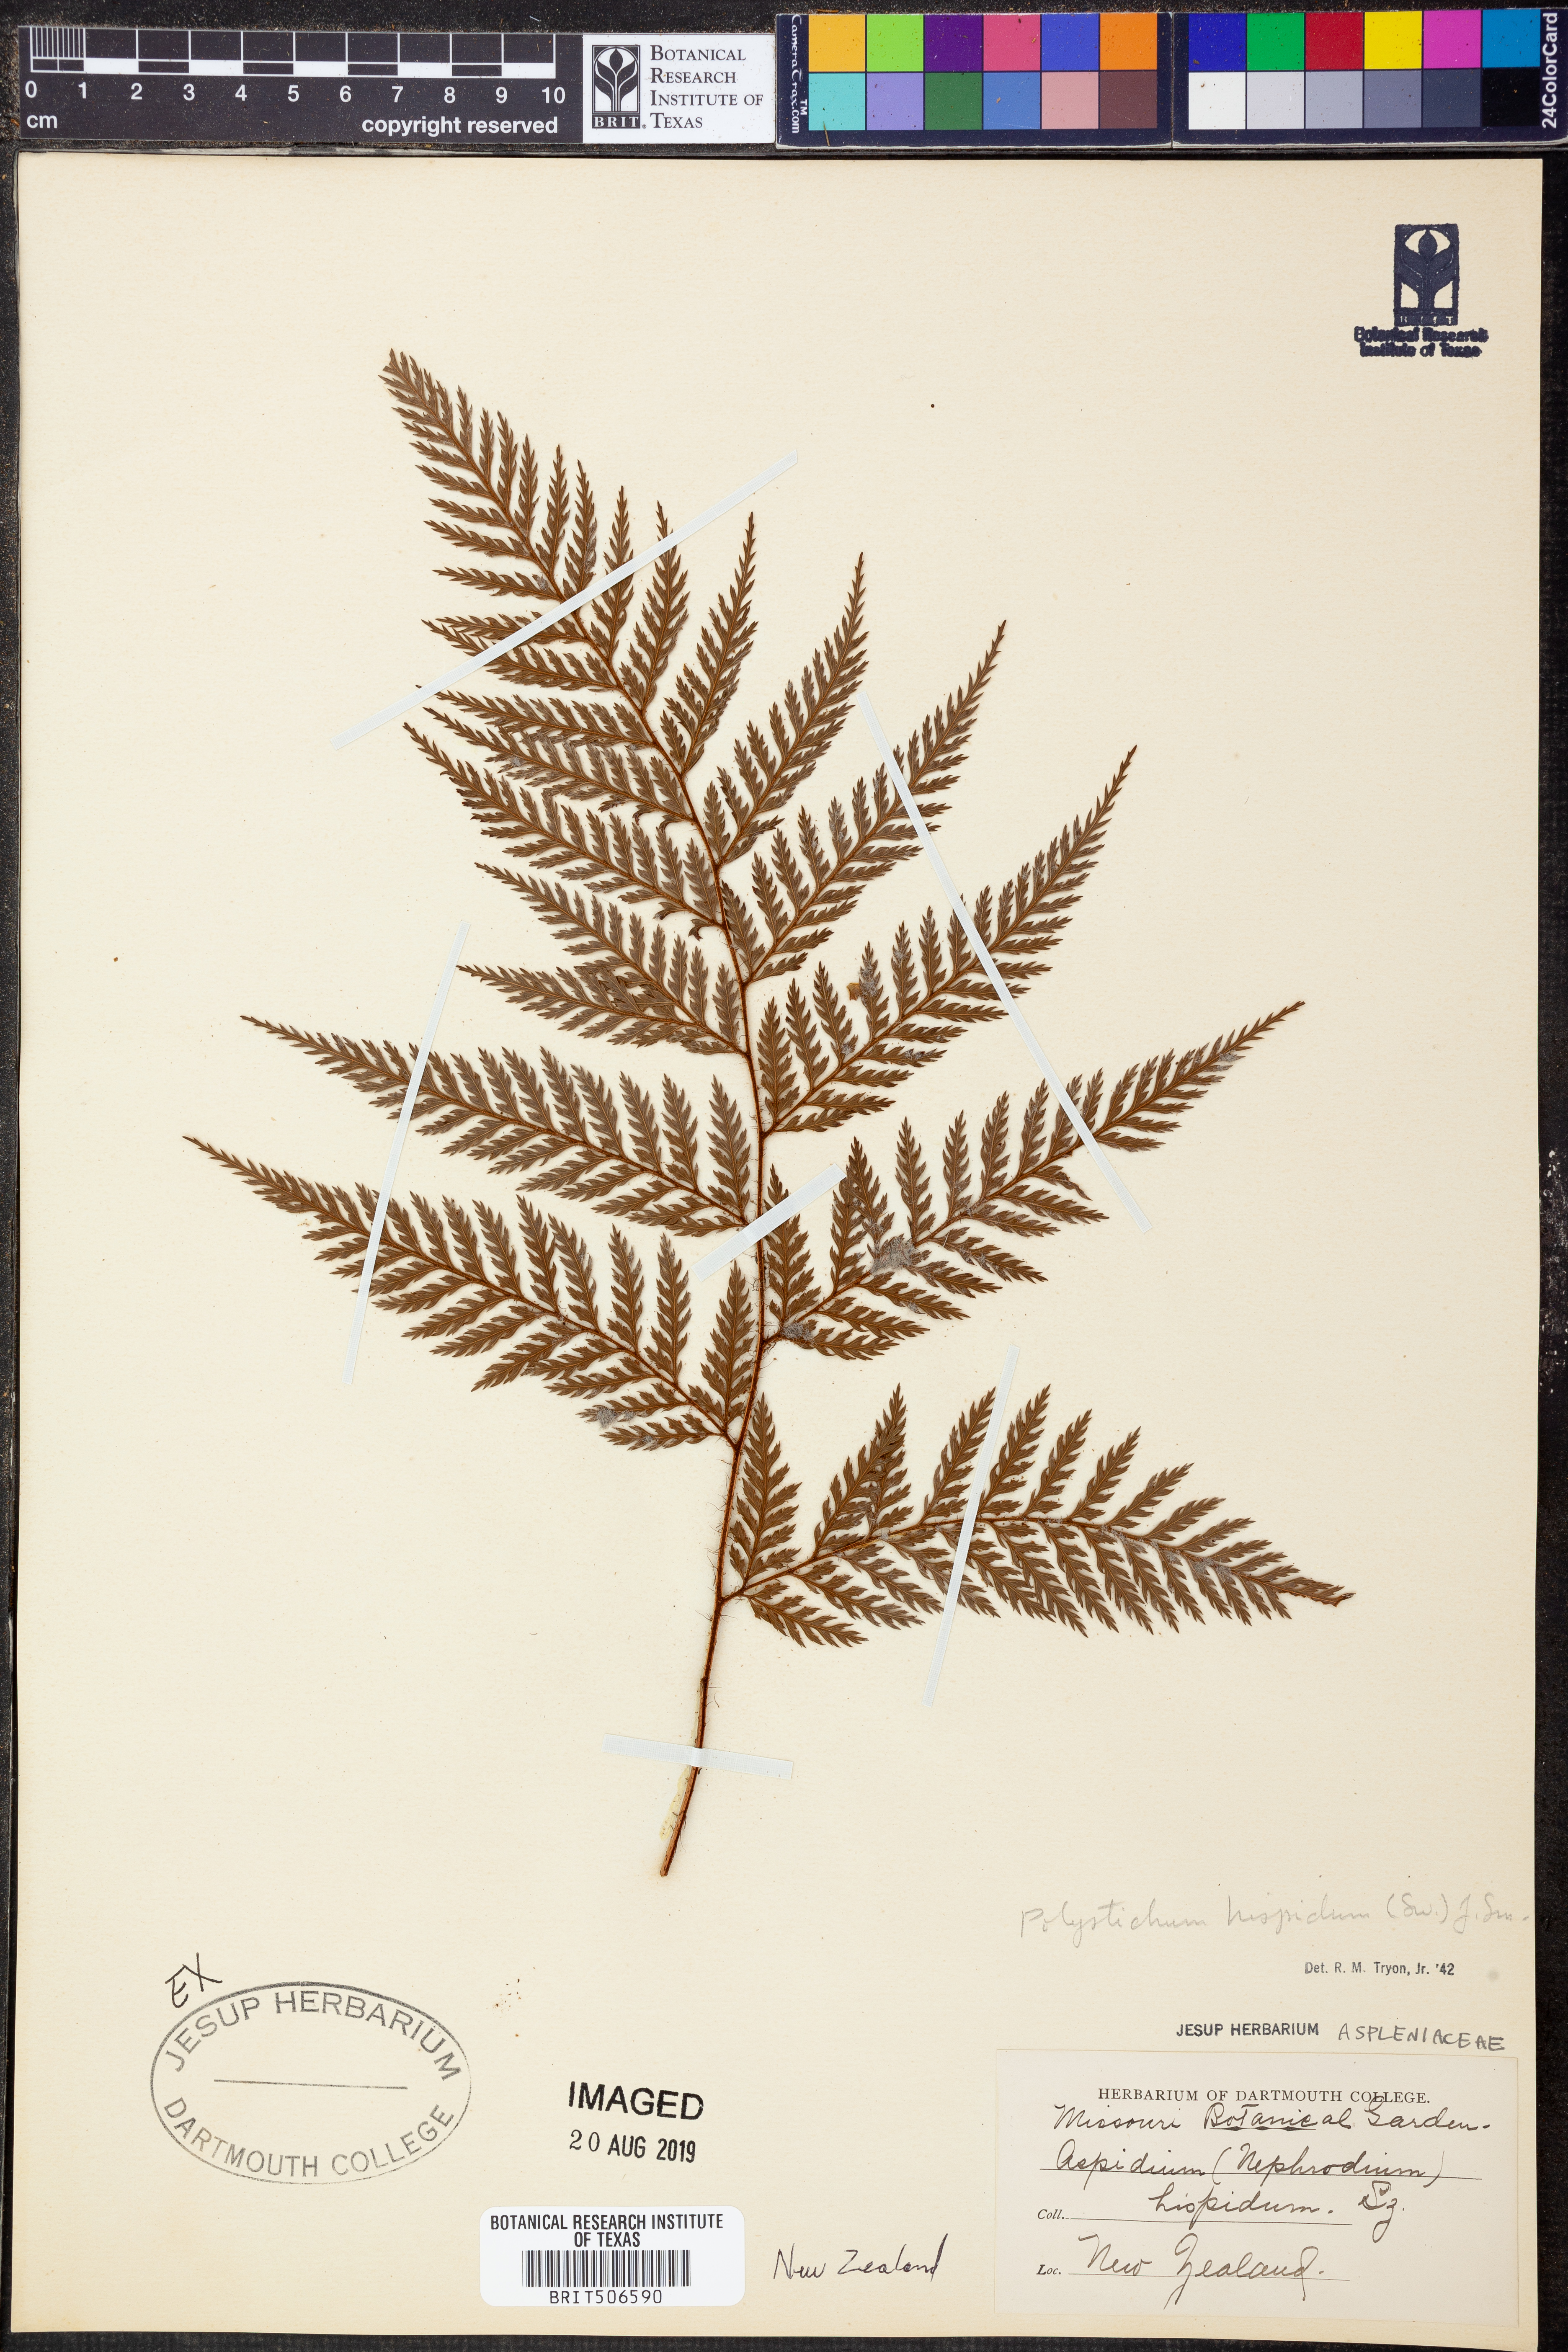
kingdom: Plantae
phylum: Tracheophyta
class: Polypodiopsida
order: Polypodiales
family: Dryopteridaceae
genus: Lastreopsis
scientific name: Lastreopsis hispida
